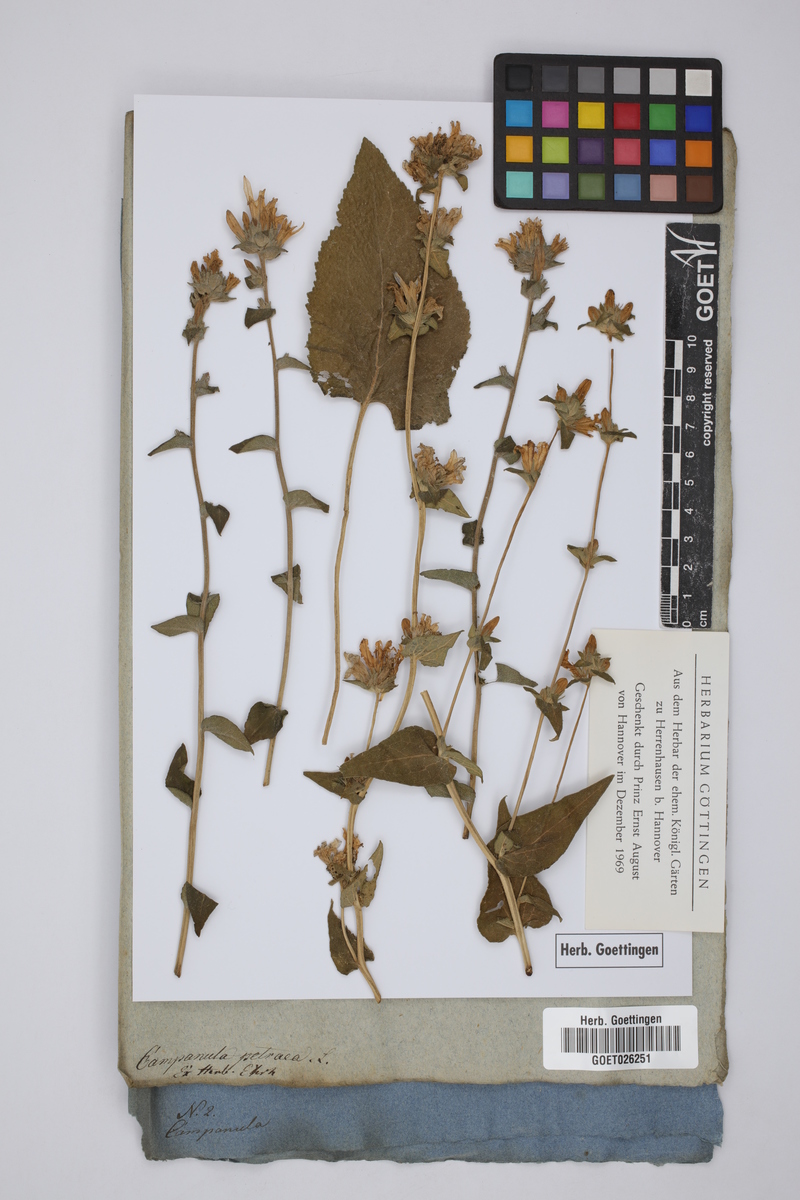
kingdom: Plantae
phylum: Tracheophyta
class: Magnoliopsida
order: Asterales
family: Campanulaceae
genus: Campanula
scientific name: Campanula petraea
